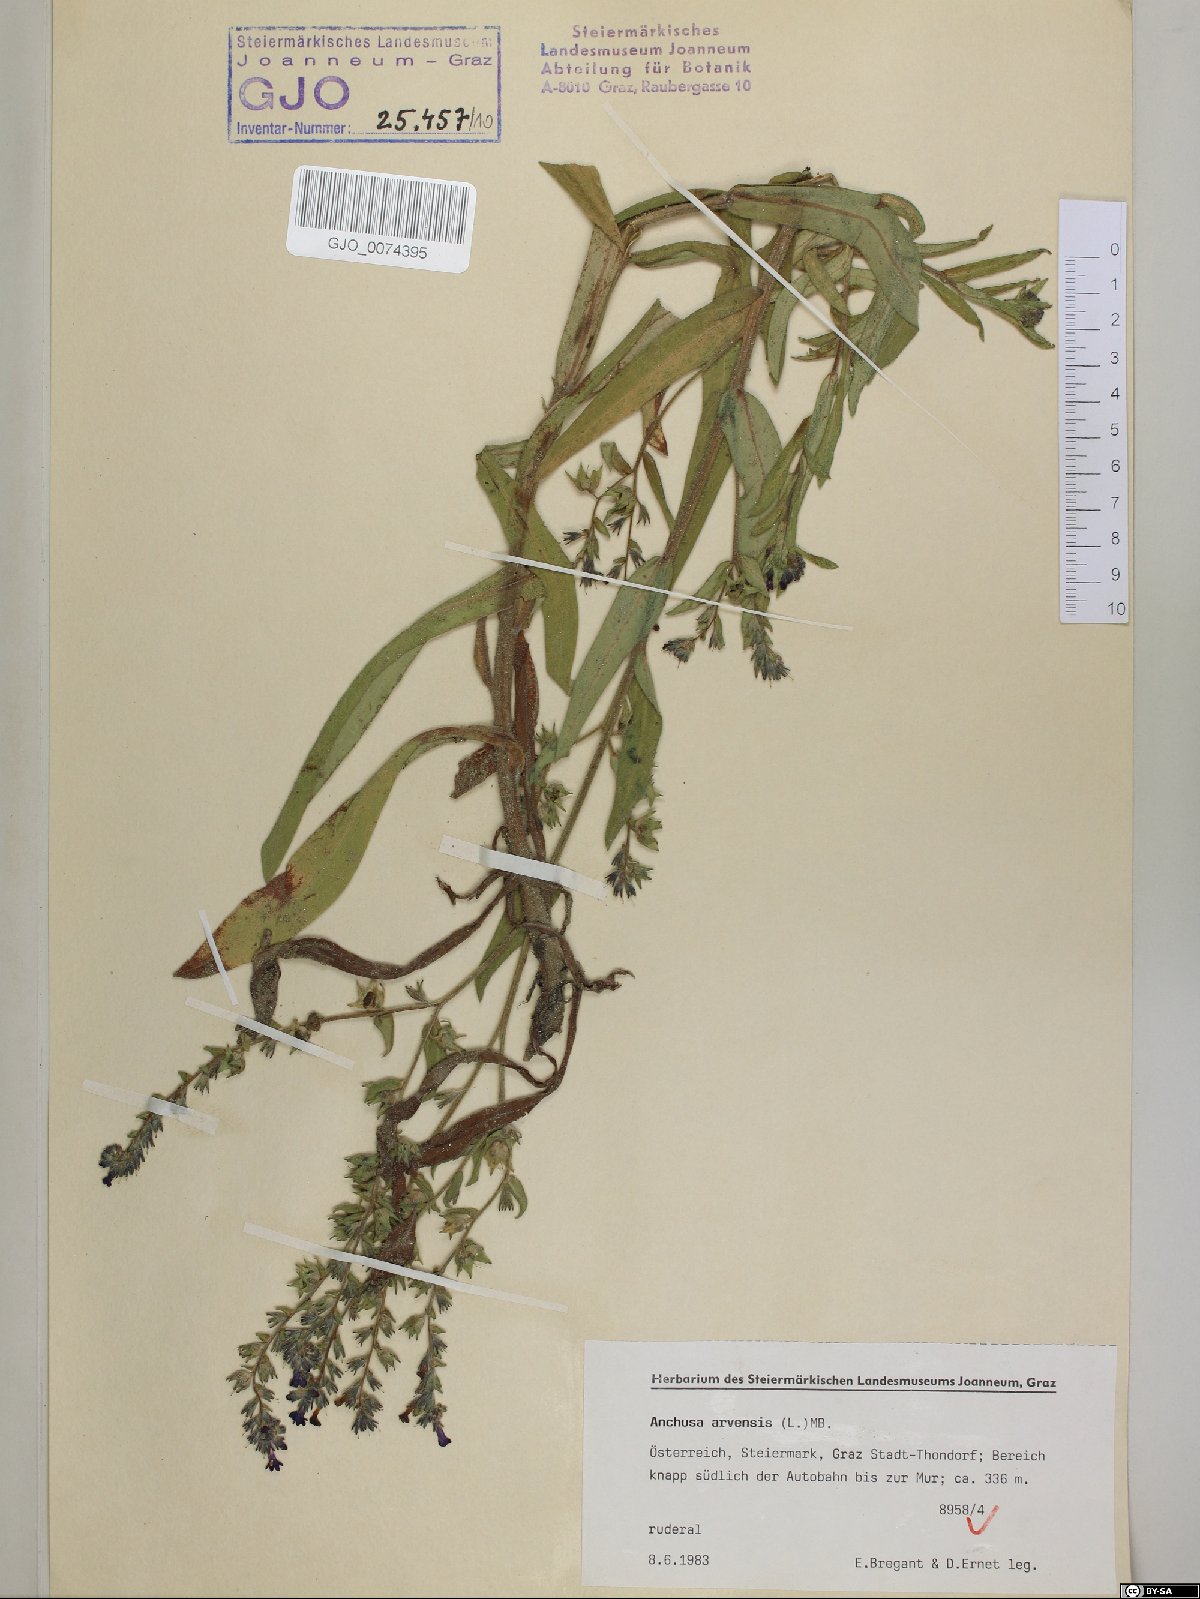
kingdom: Plantae
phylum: Tracheophyta
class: Magnoliopsida
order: Boraginales
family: Boraginaceae
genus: Anchusa
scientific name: Anchusa officinalis
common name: Alkanet
